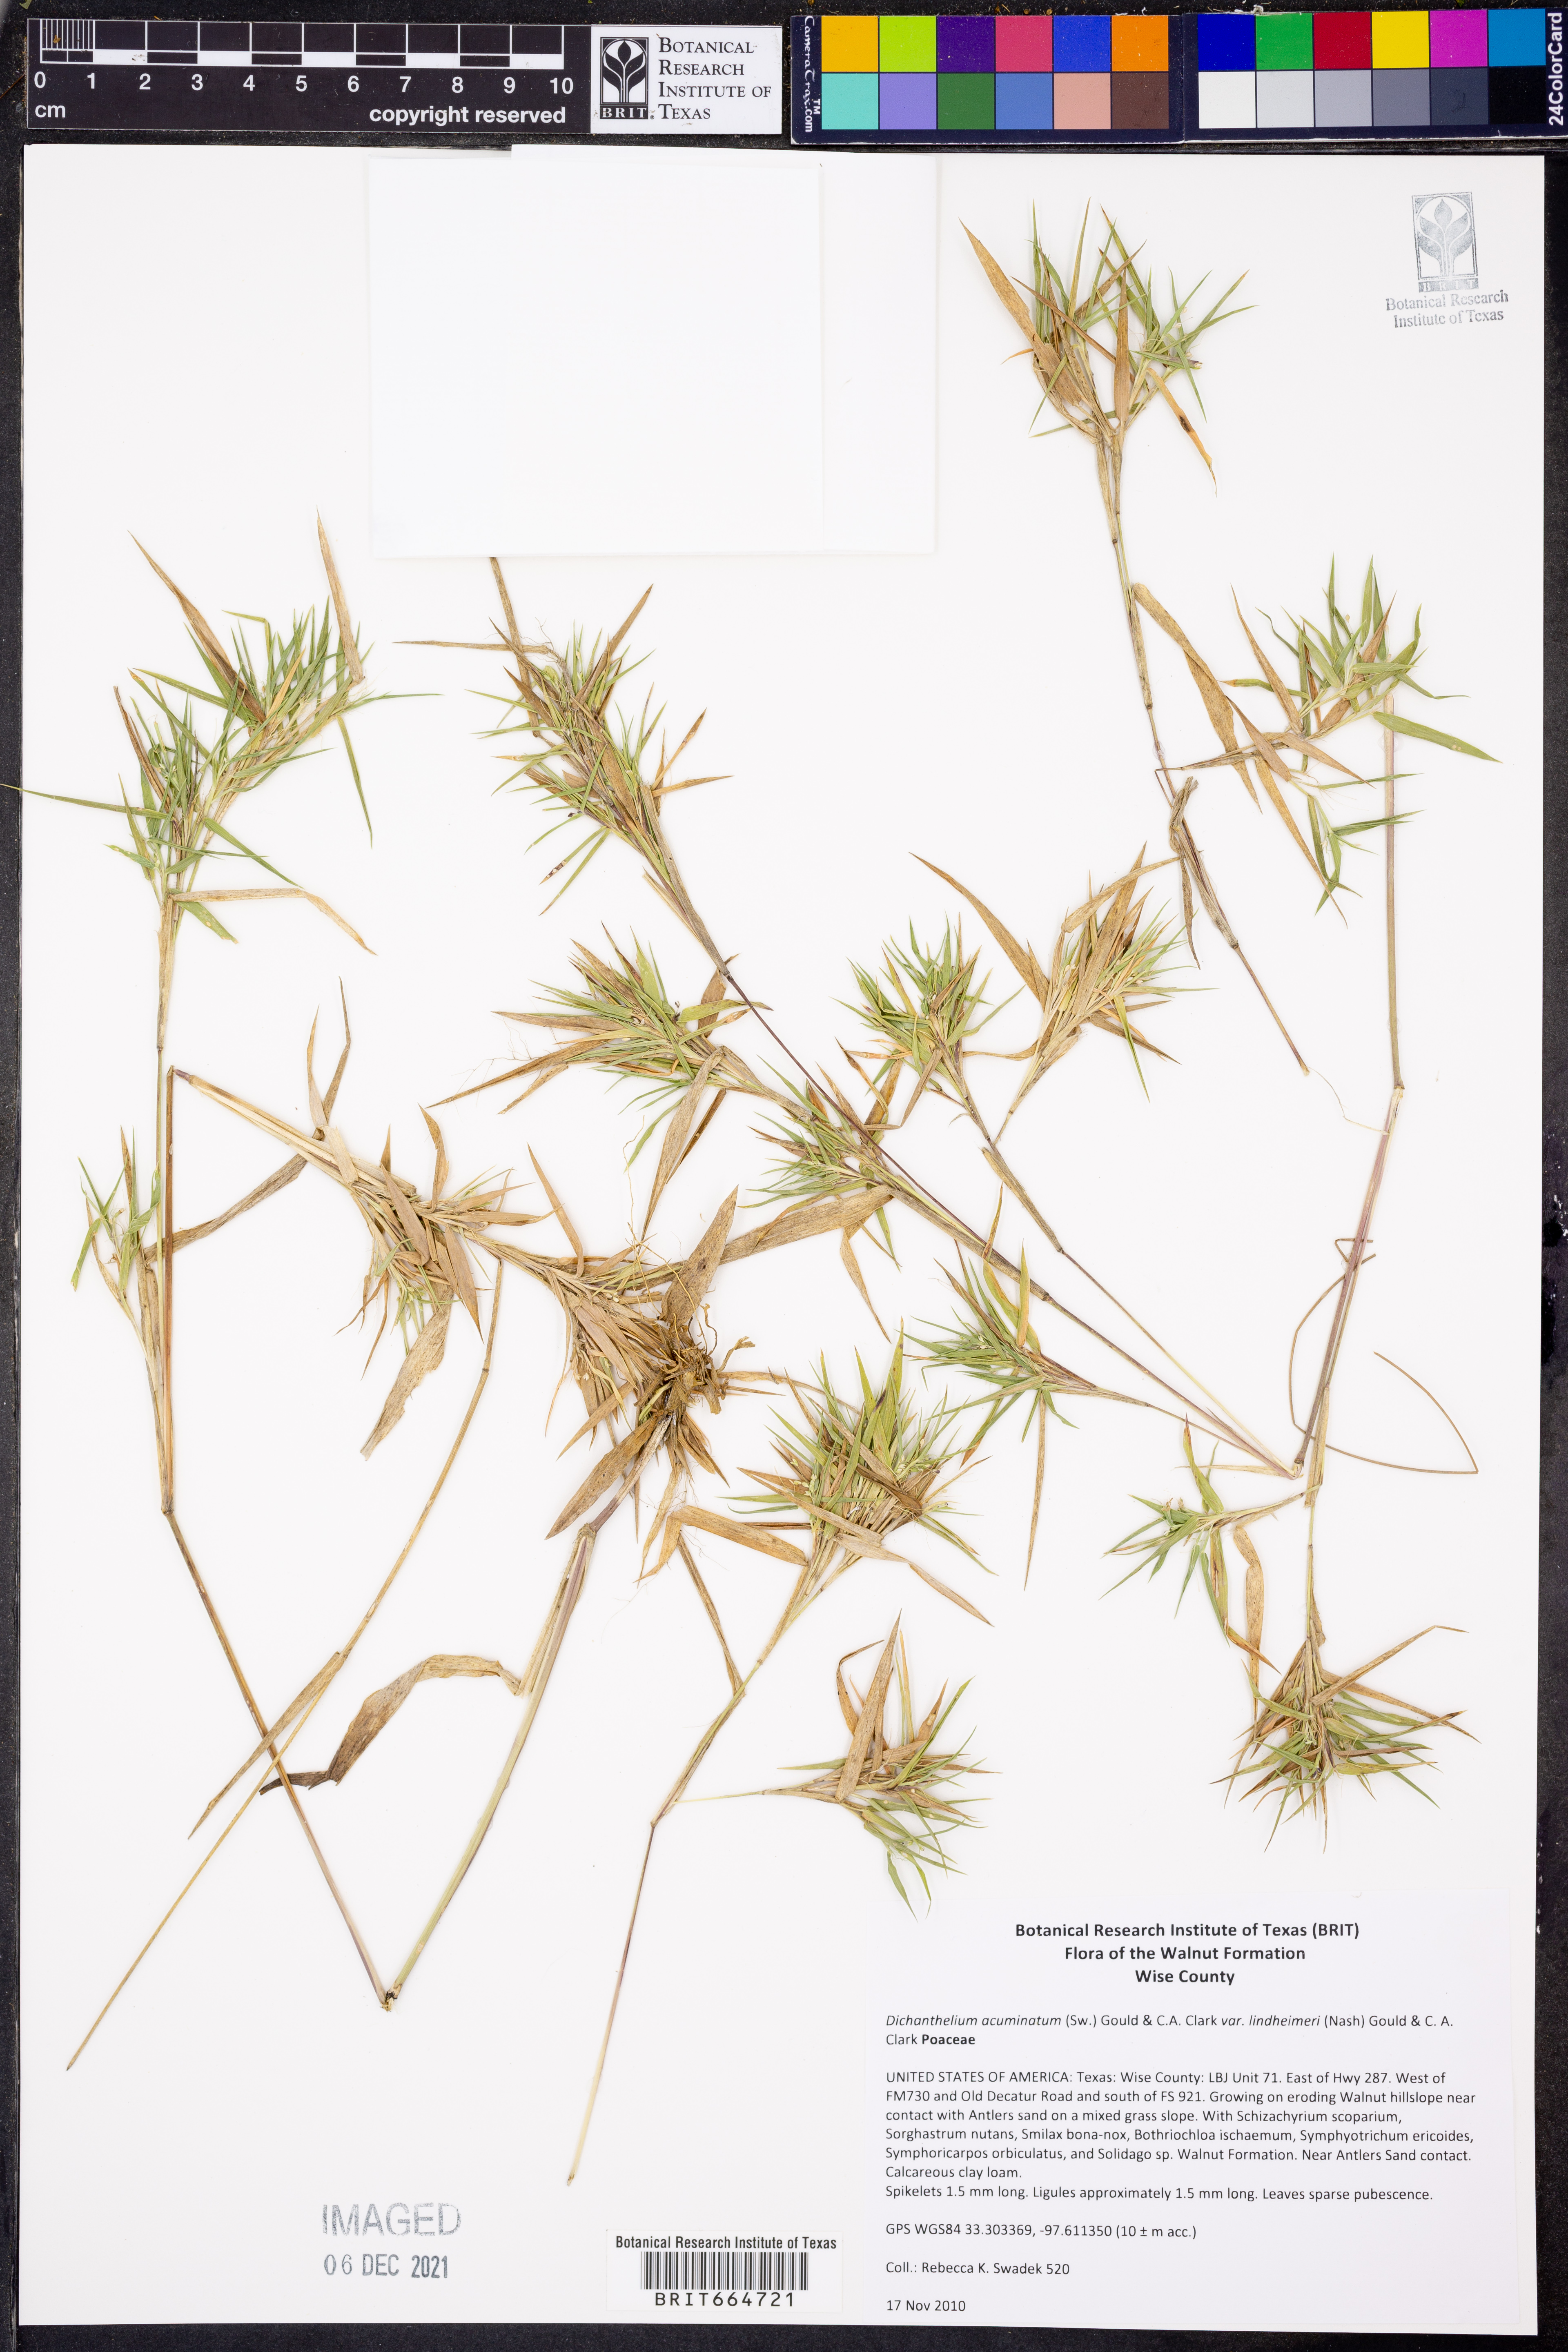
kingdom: Plantae
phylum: Tracheophyta
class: Liliopsida
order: Poales
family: Poaceae
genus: Dichanthelium
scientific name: Dichanthelium lindheimeri
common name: Lindheimer's panicgrass
